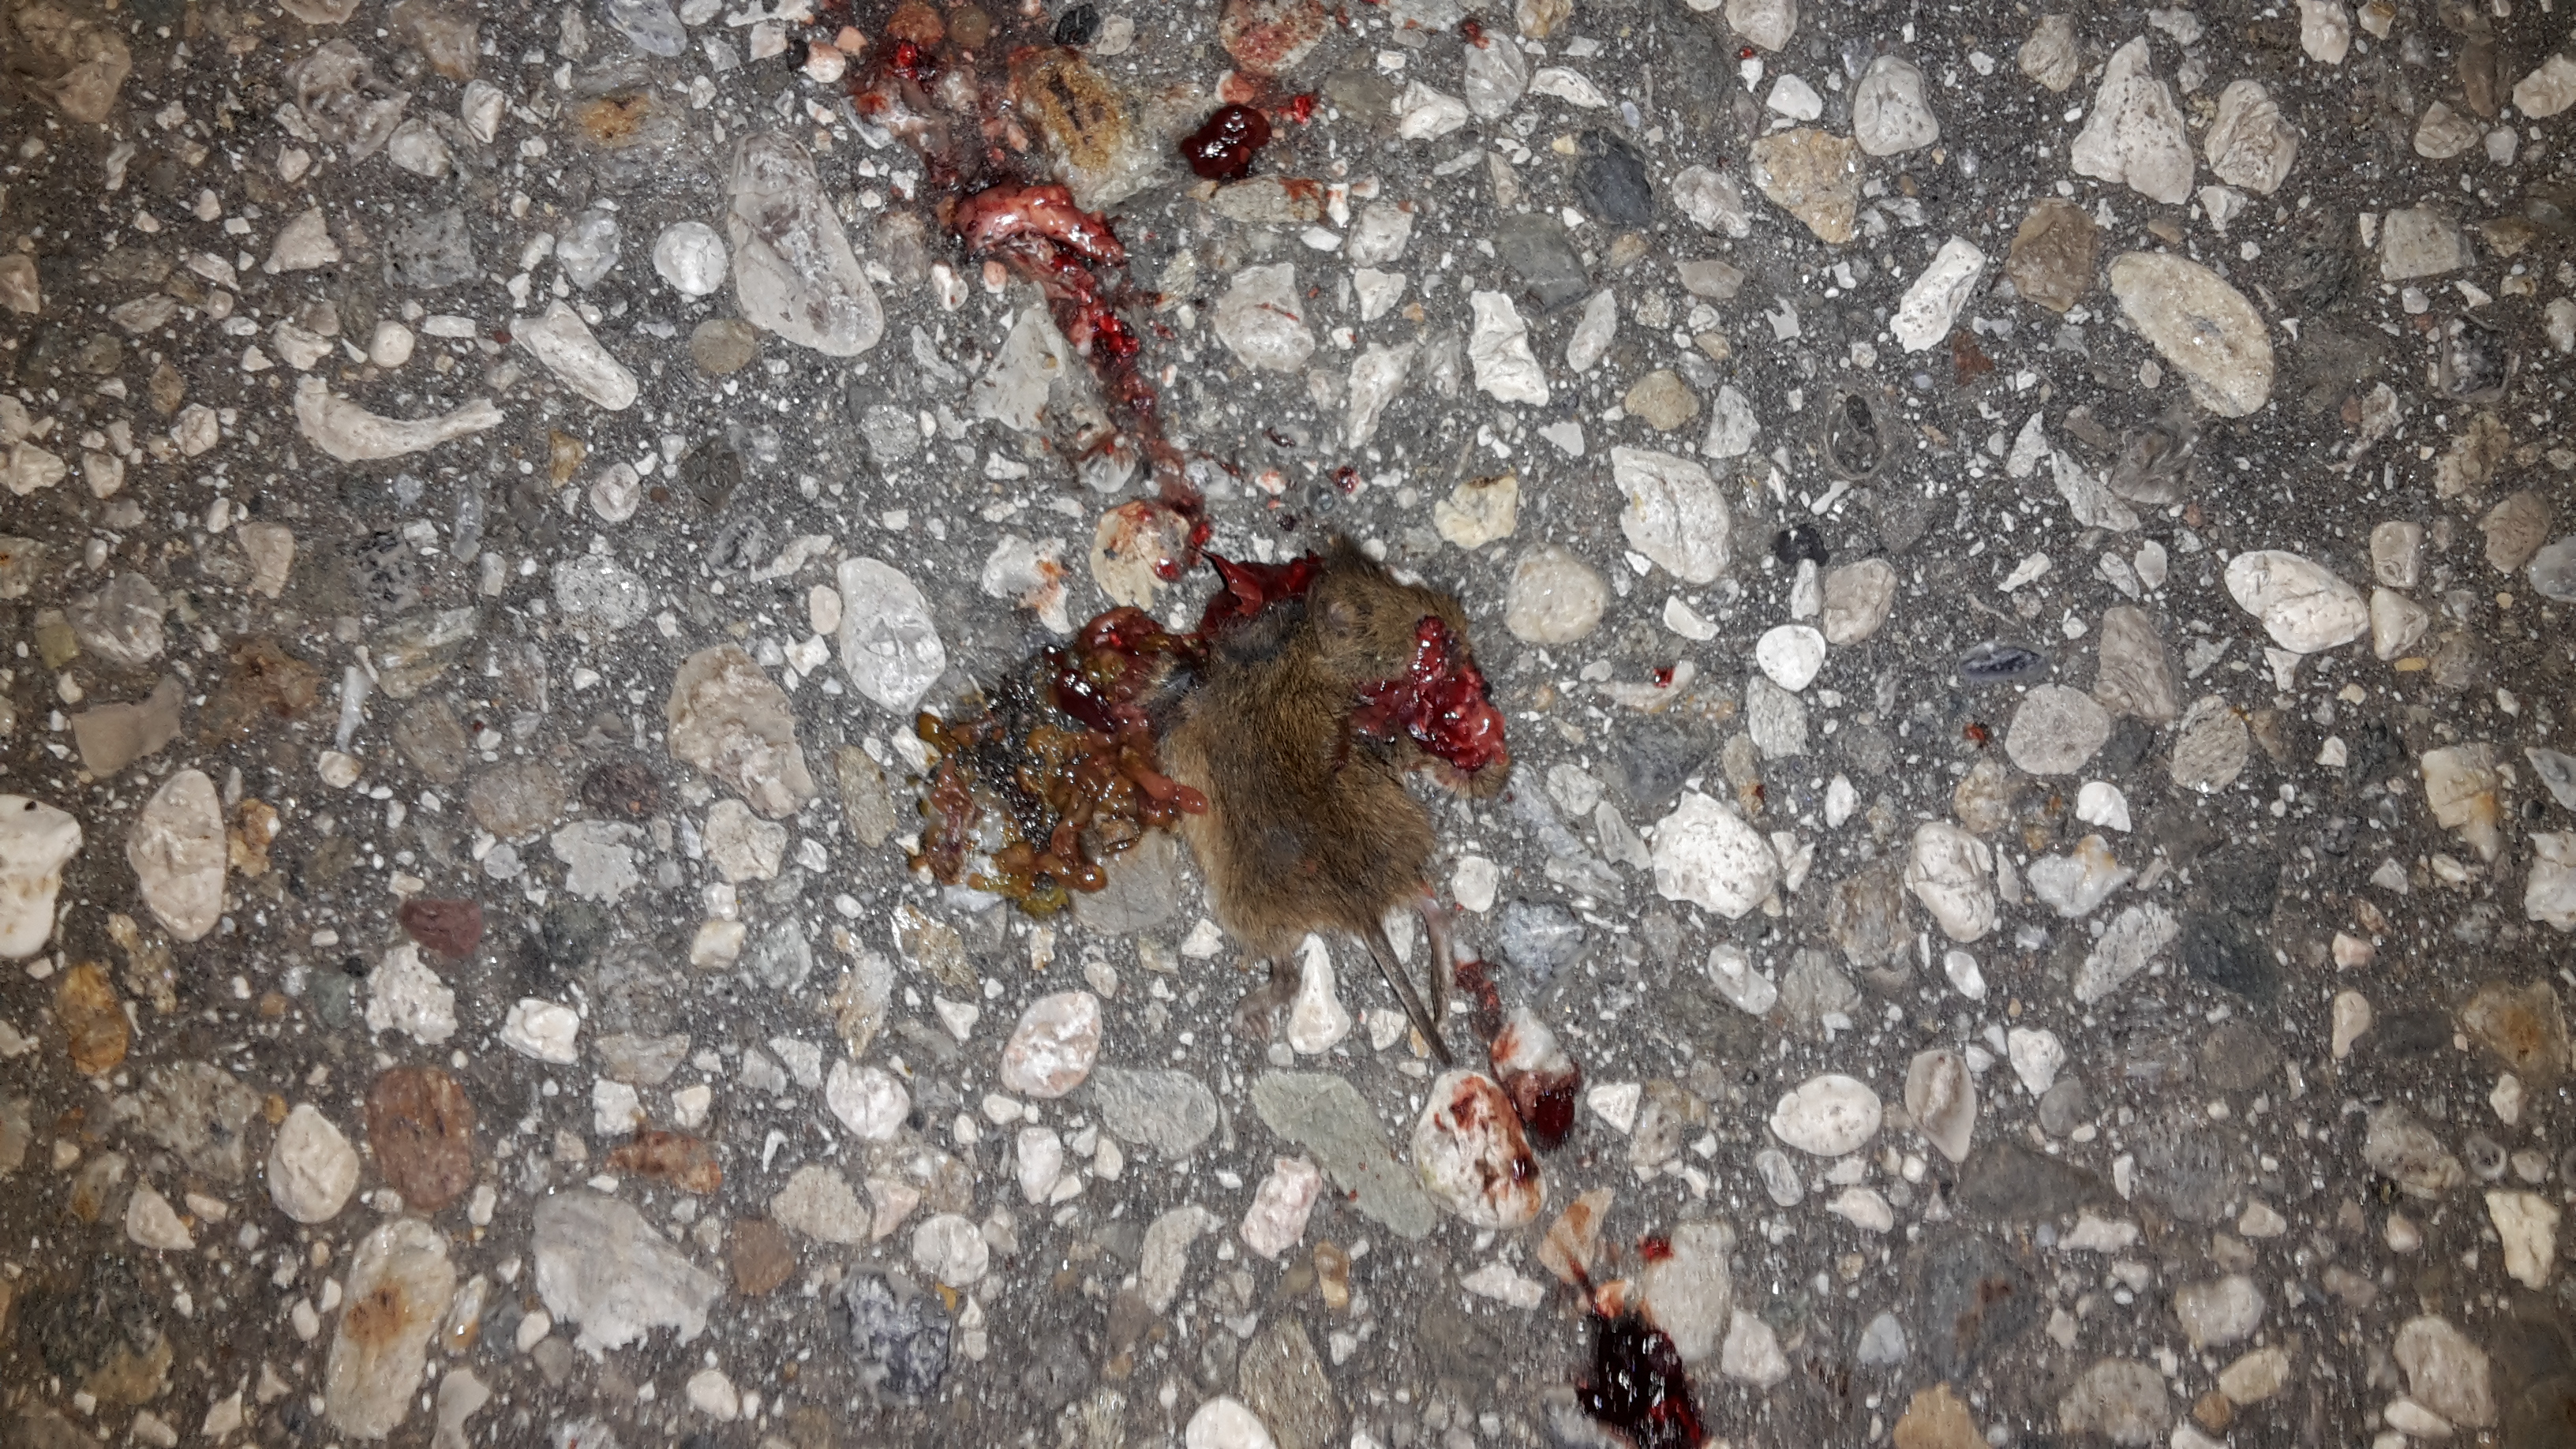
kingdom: Animalia
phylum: Chordata
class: Mammalia
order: Rodentia
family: Cricetidae
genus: Microtus
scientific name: Microtus
